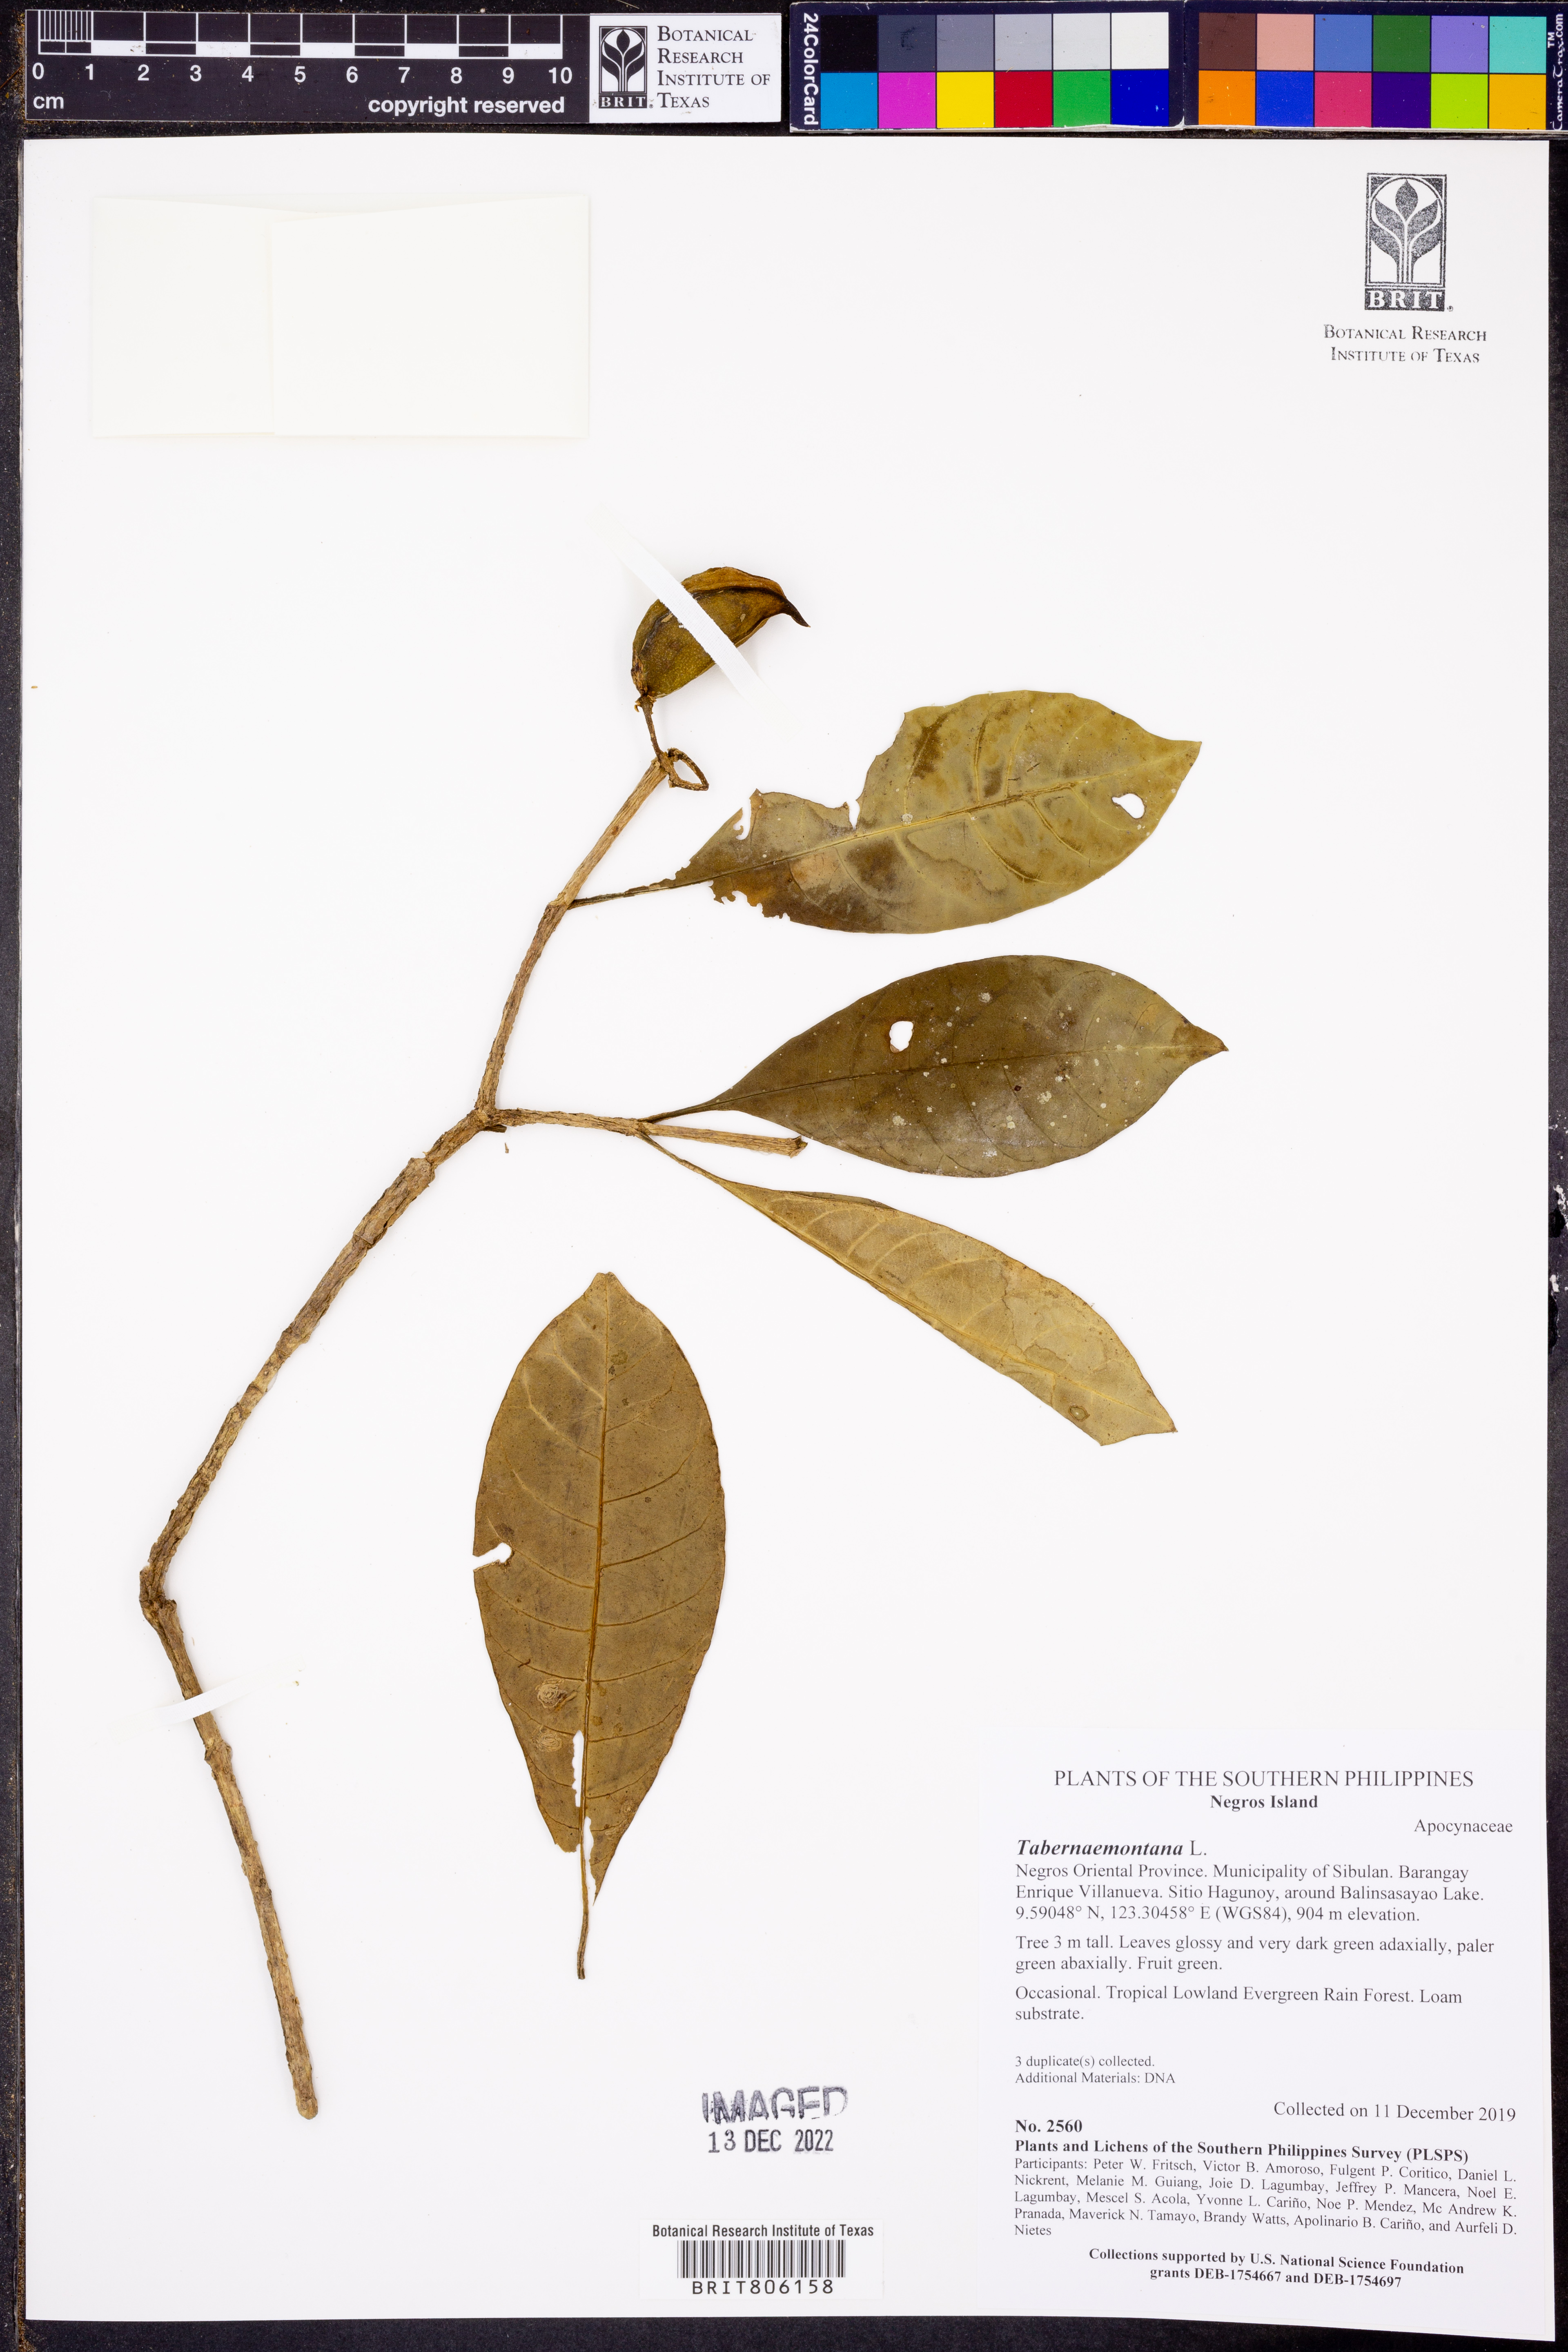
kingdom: Plantae
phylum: Tracheophyta
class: Magnoliopsida
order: Gentianales
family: Apocynaceae
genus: Tabernaemontana
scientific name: Tabernaemontana
